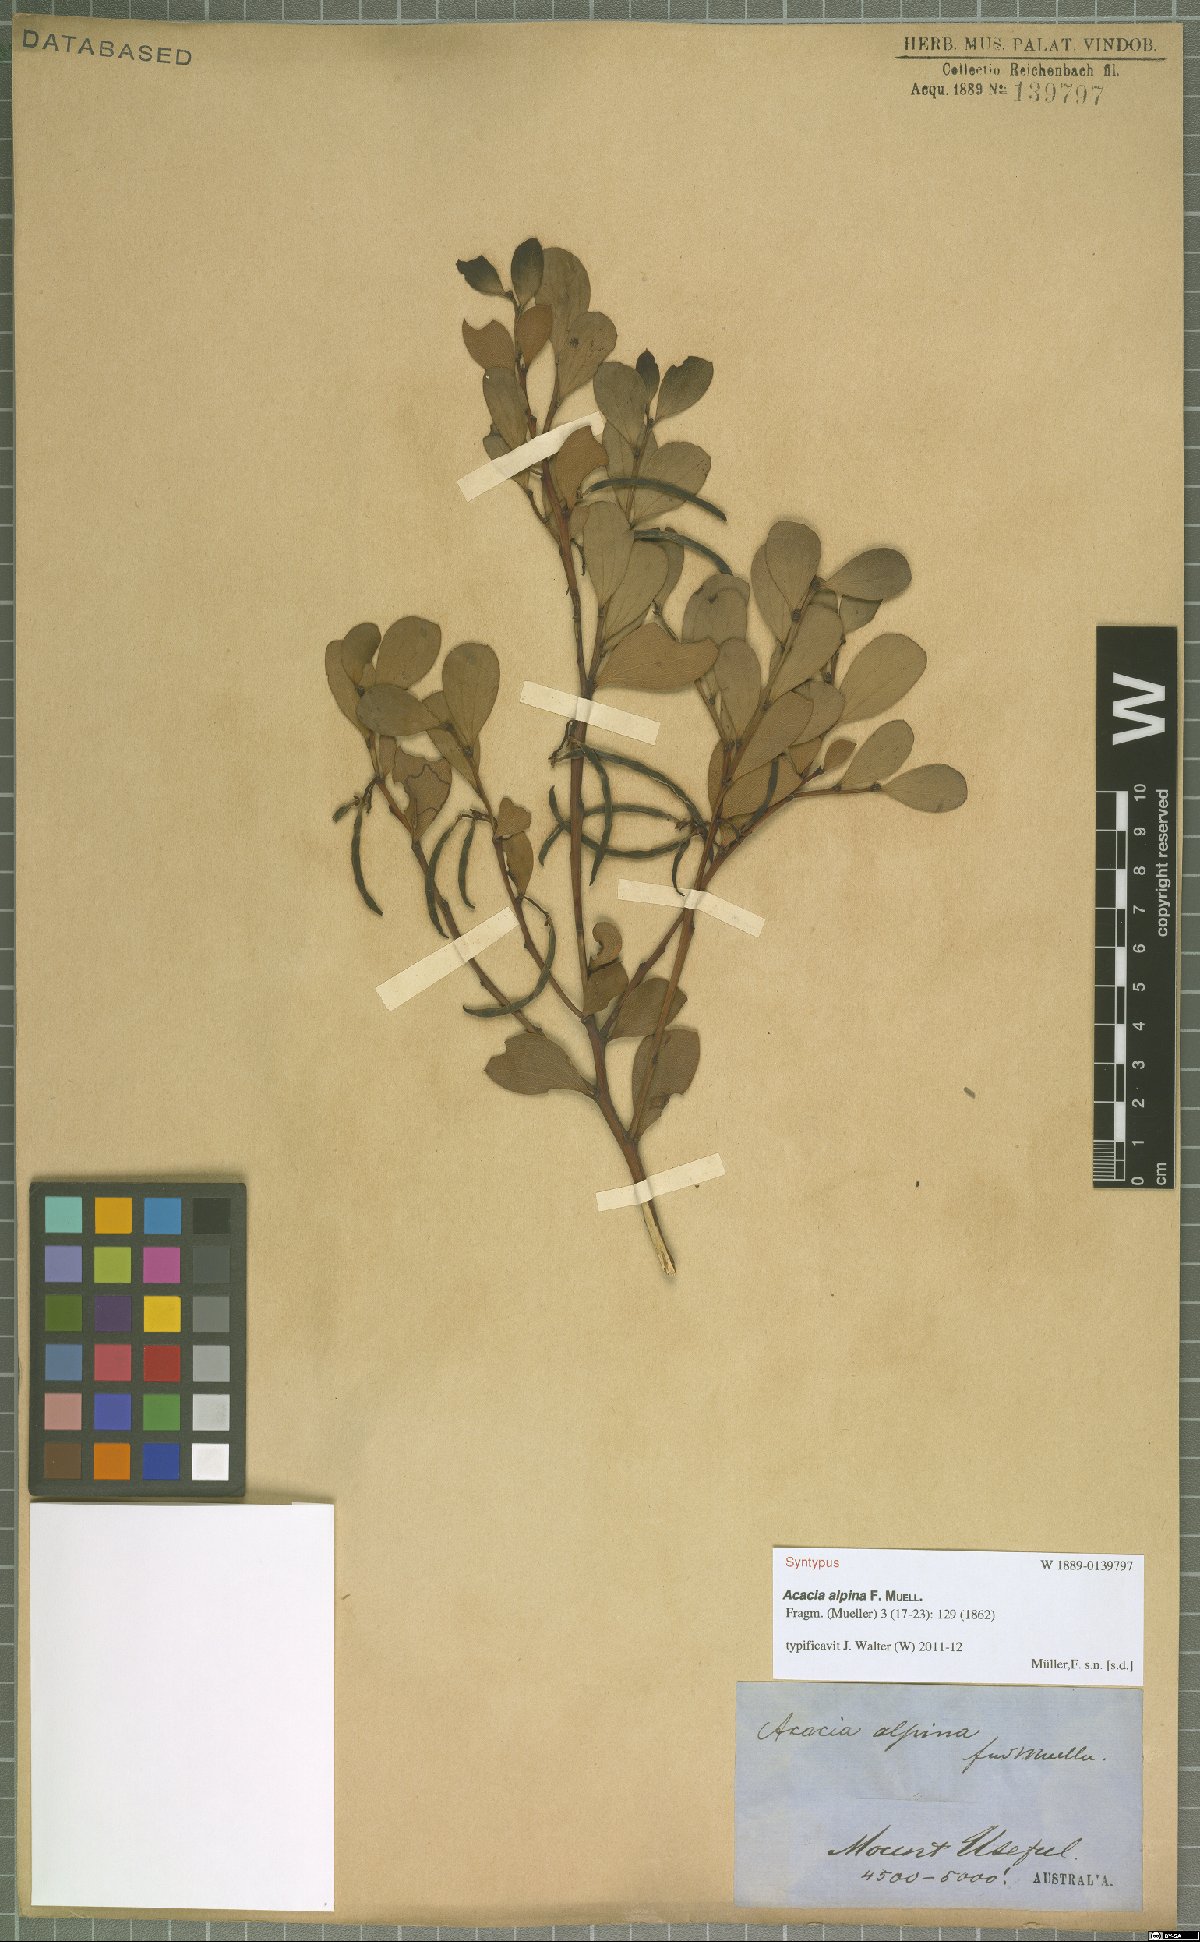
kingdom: Plantae
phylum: Tracheophyta
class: Magnoliopsida
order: Fabales
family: Fabaceae
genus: Acacia
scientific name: Acacia alpina
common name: Alpine wattle
